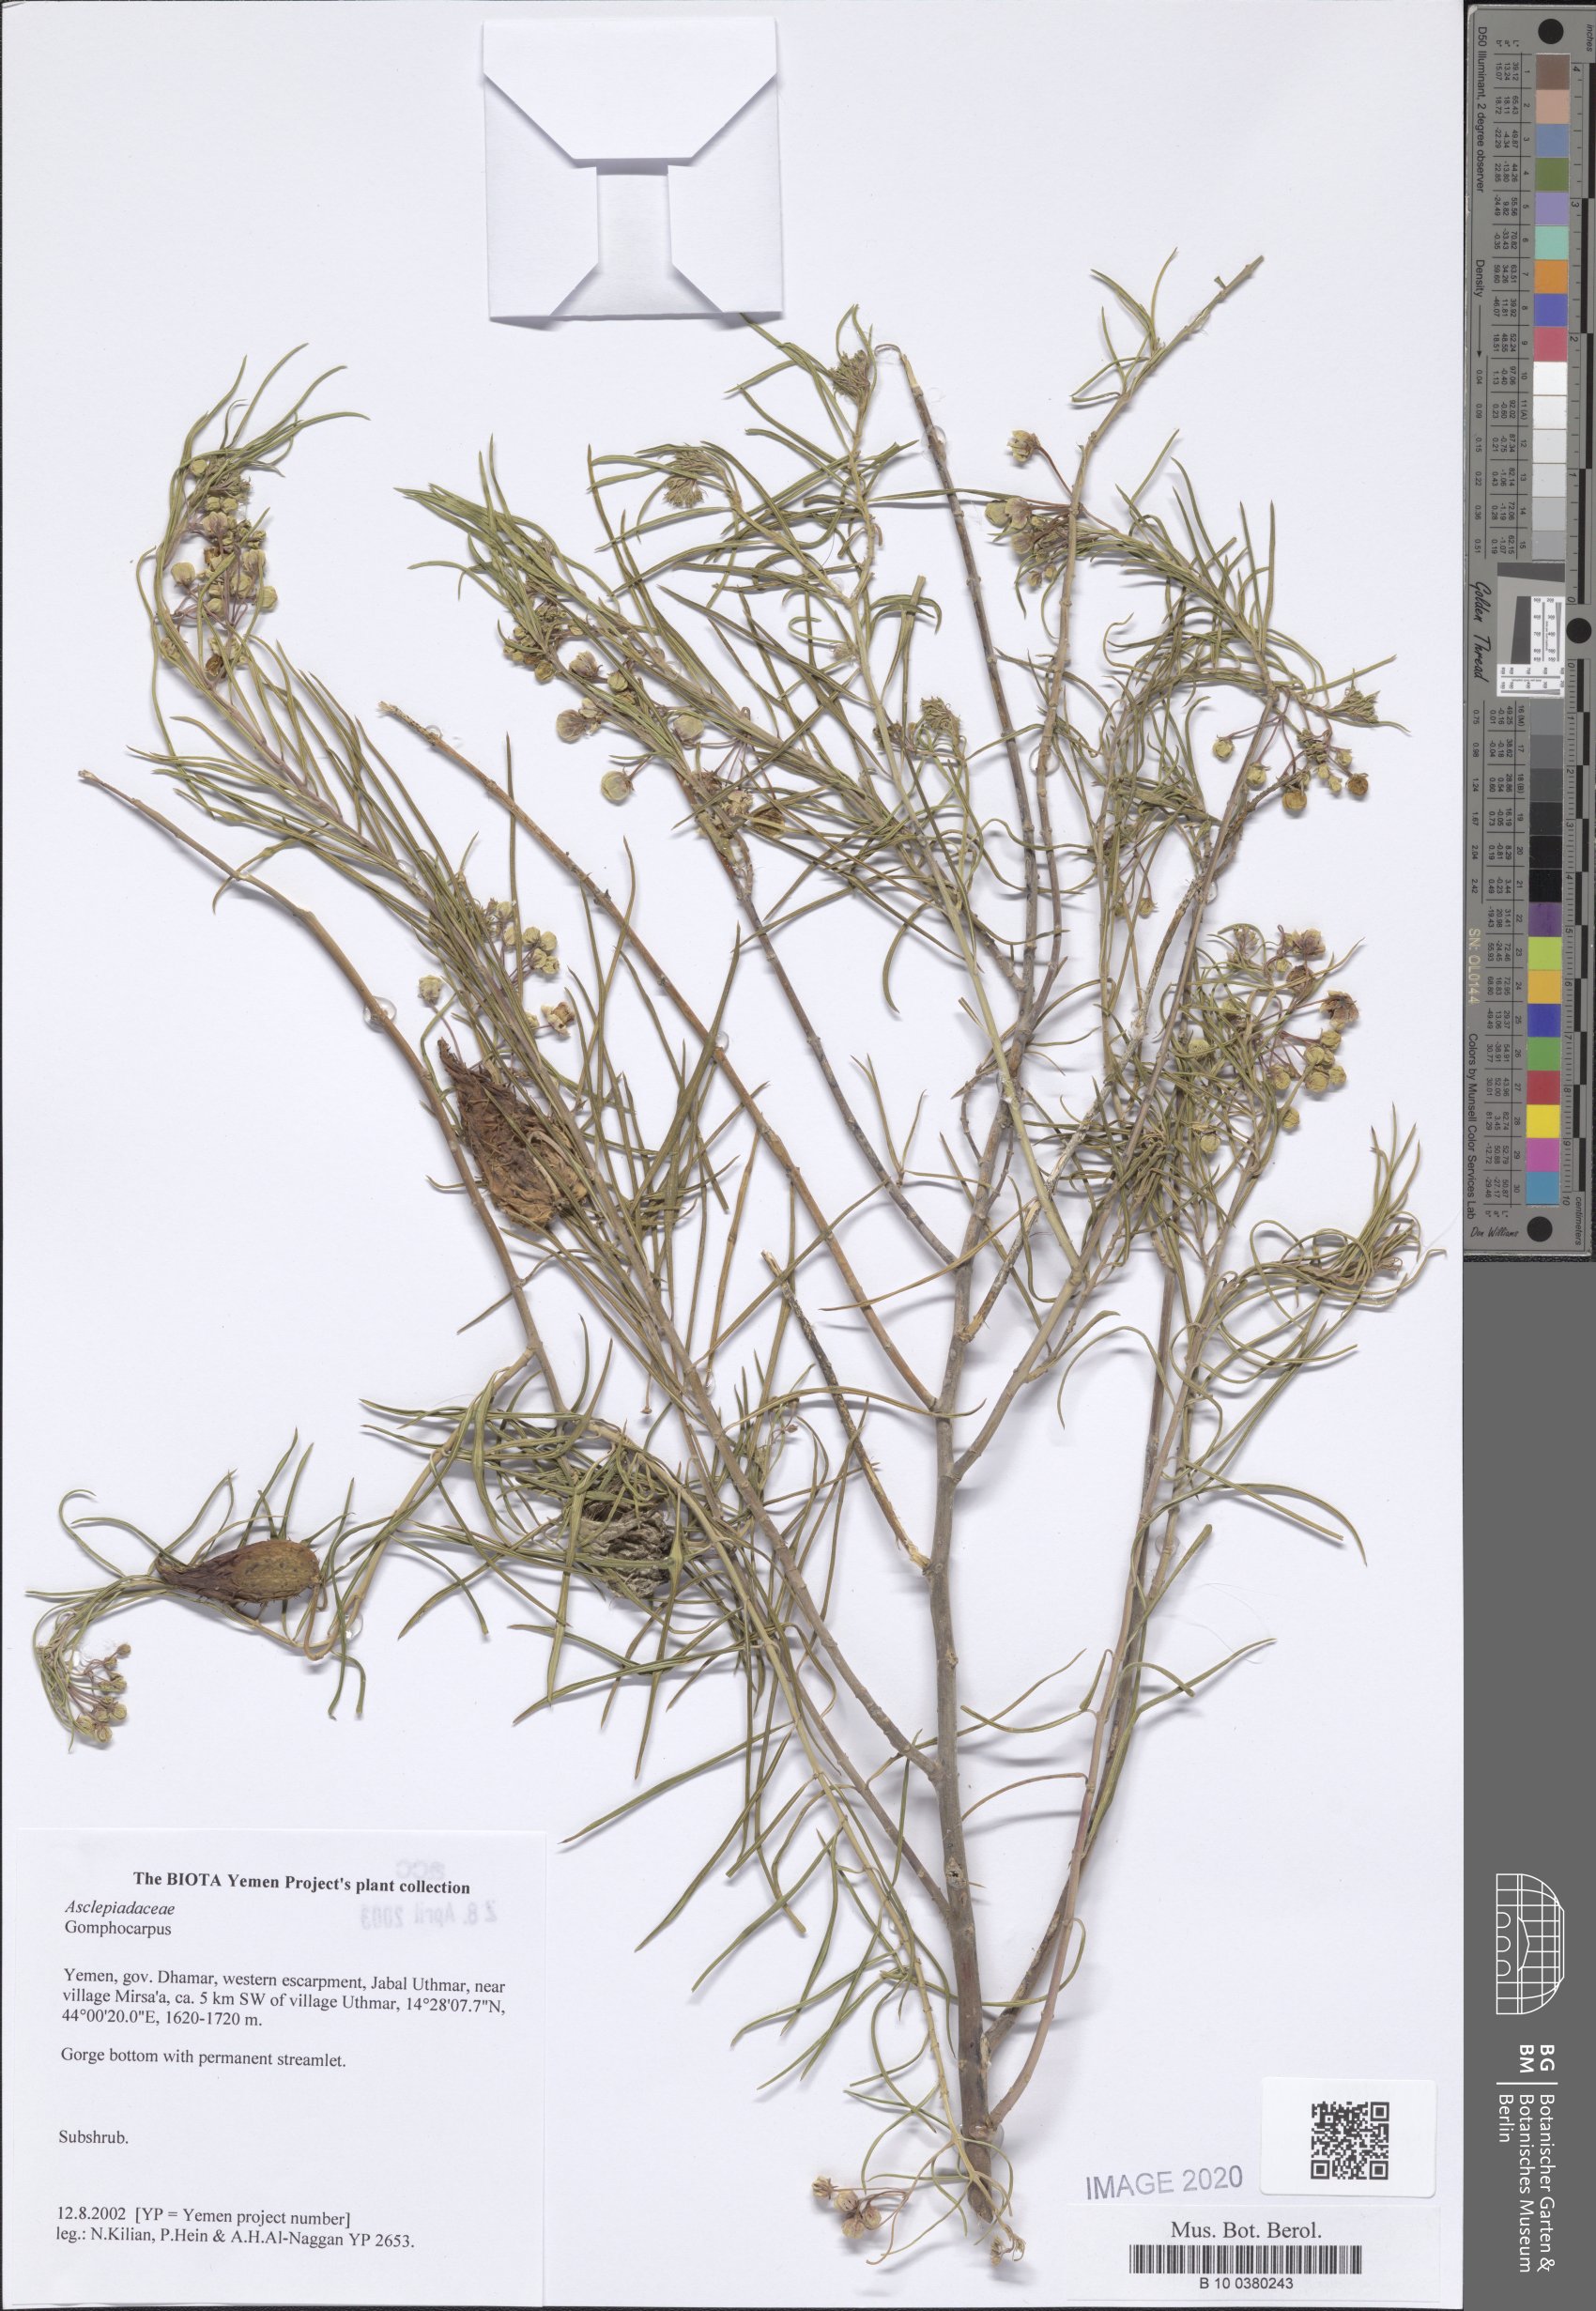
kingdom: Plantae
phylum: Tracheophyta
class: Magnoliopsida
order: Gentianales
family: Apocynaceae
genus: Gomphocarpus
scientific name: Gomphocarpus
